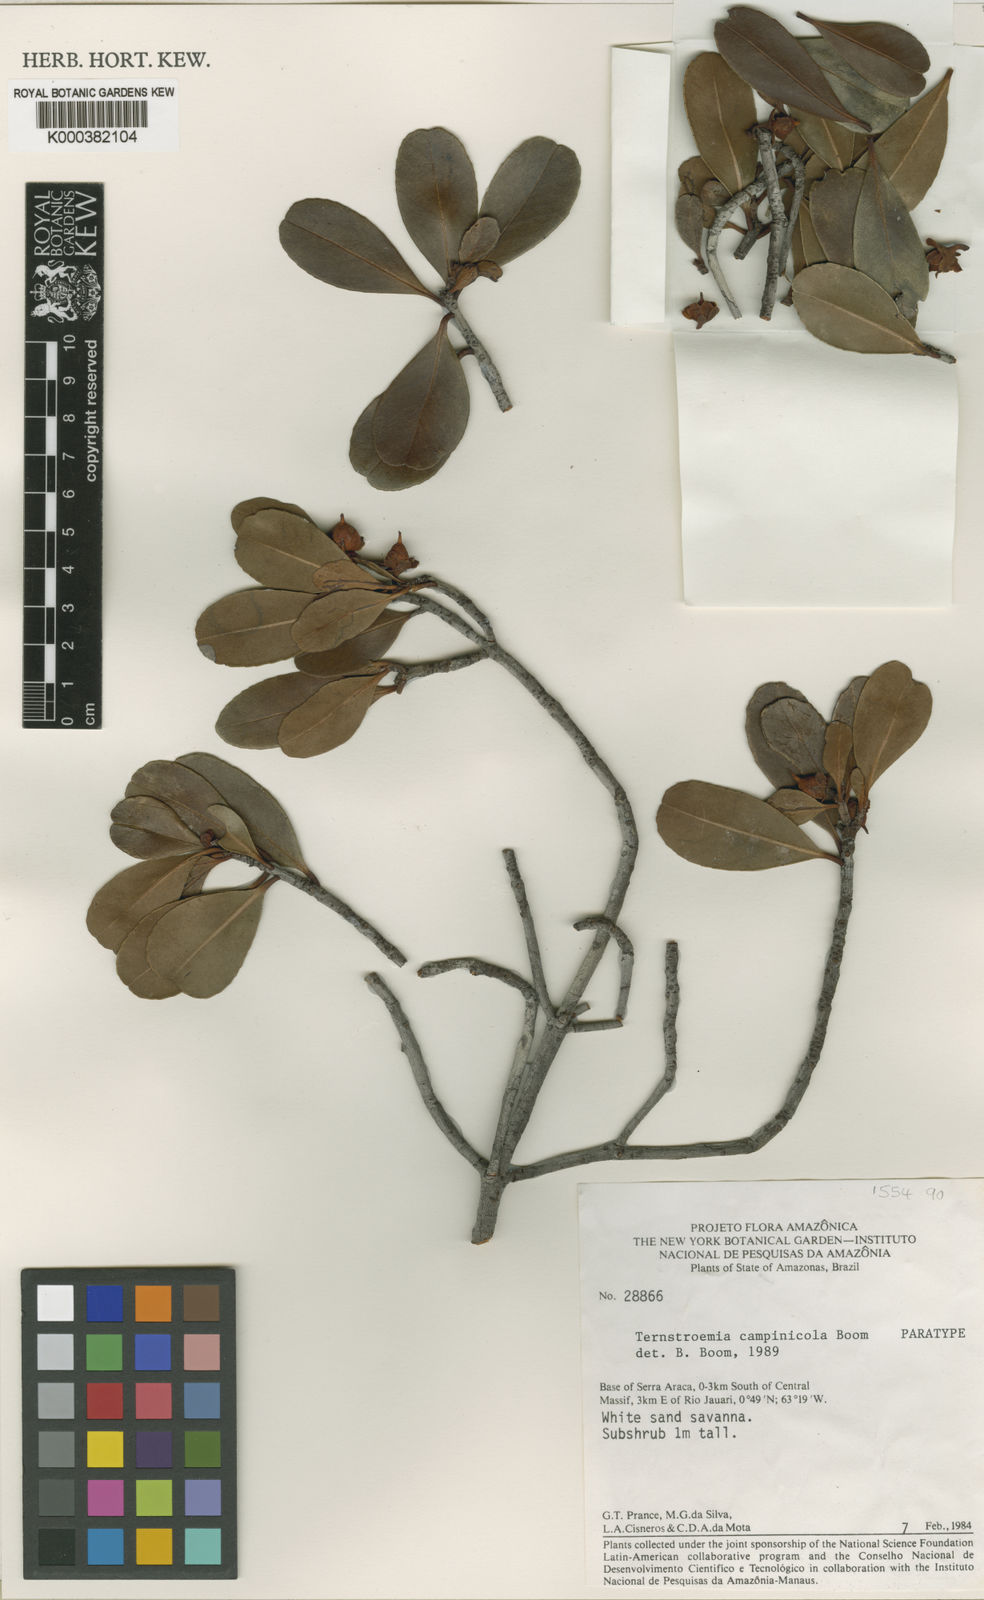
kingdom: Plantae
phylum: Tracheophyta
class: Magnoliopsida
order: Ericales
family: Pentaphylacaceae
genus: Ternstroemia
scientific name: Ternstroemia campinicola
